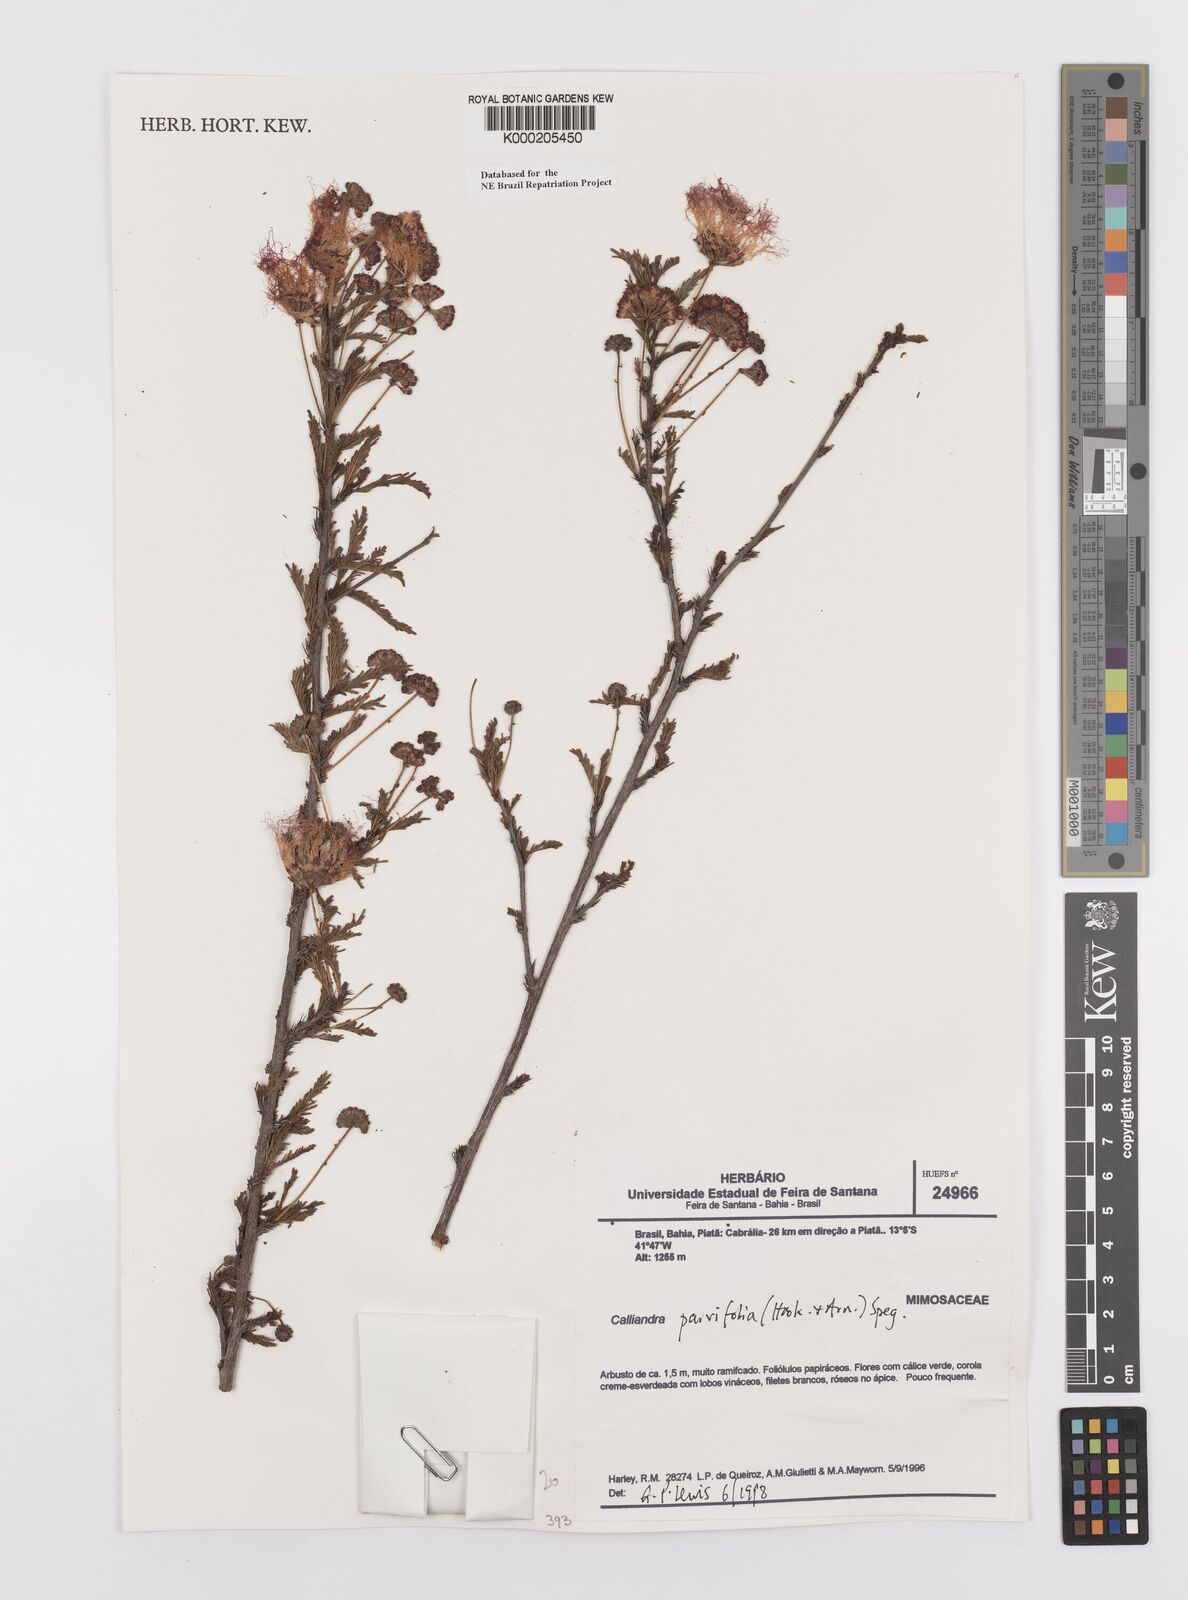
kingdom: Plantae
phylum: Tracheophyta
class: Magnoliopsida
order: Fabales
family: Fabaceae
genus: Calliandra
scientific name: Calliandra parvifolia
